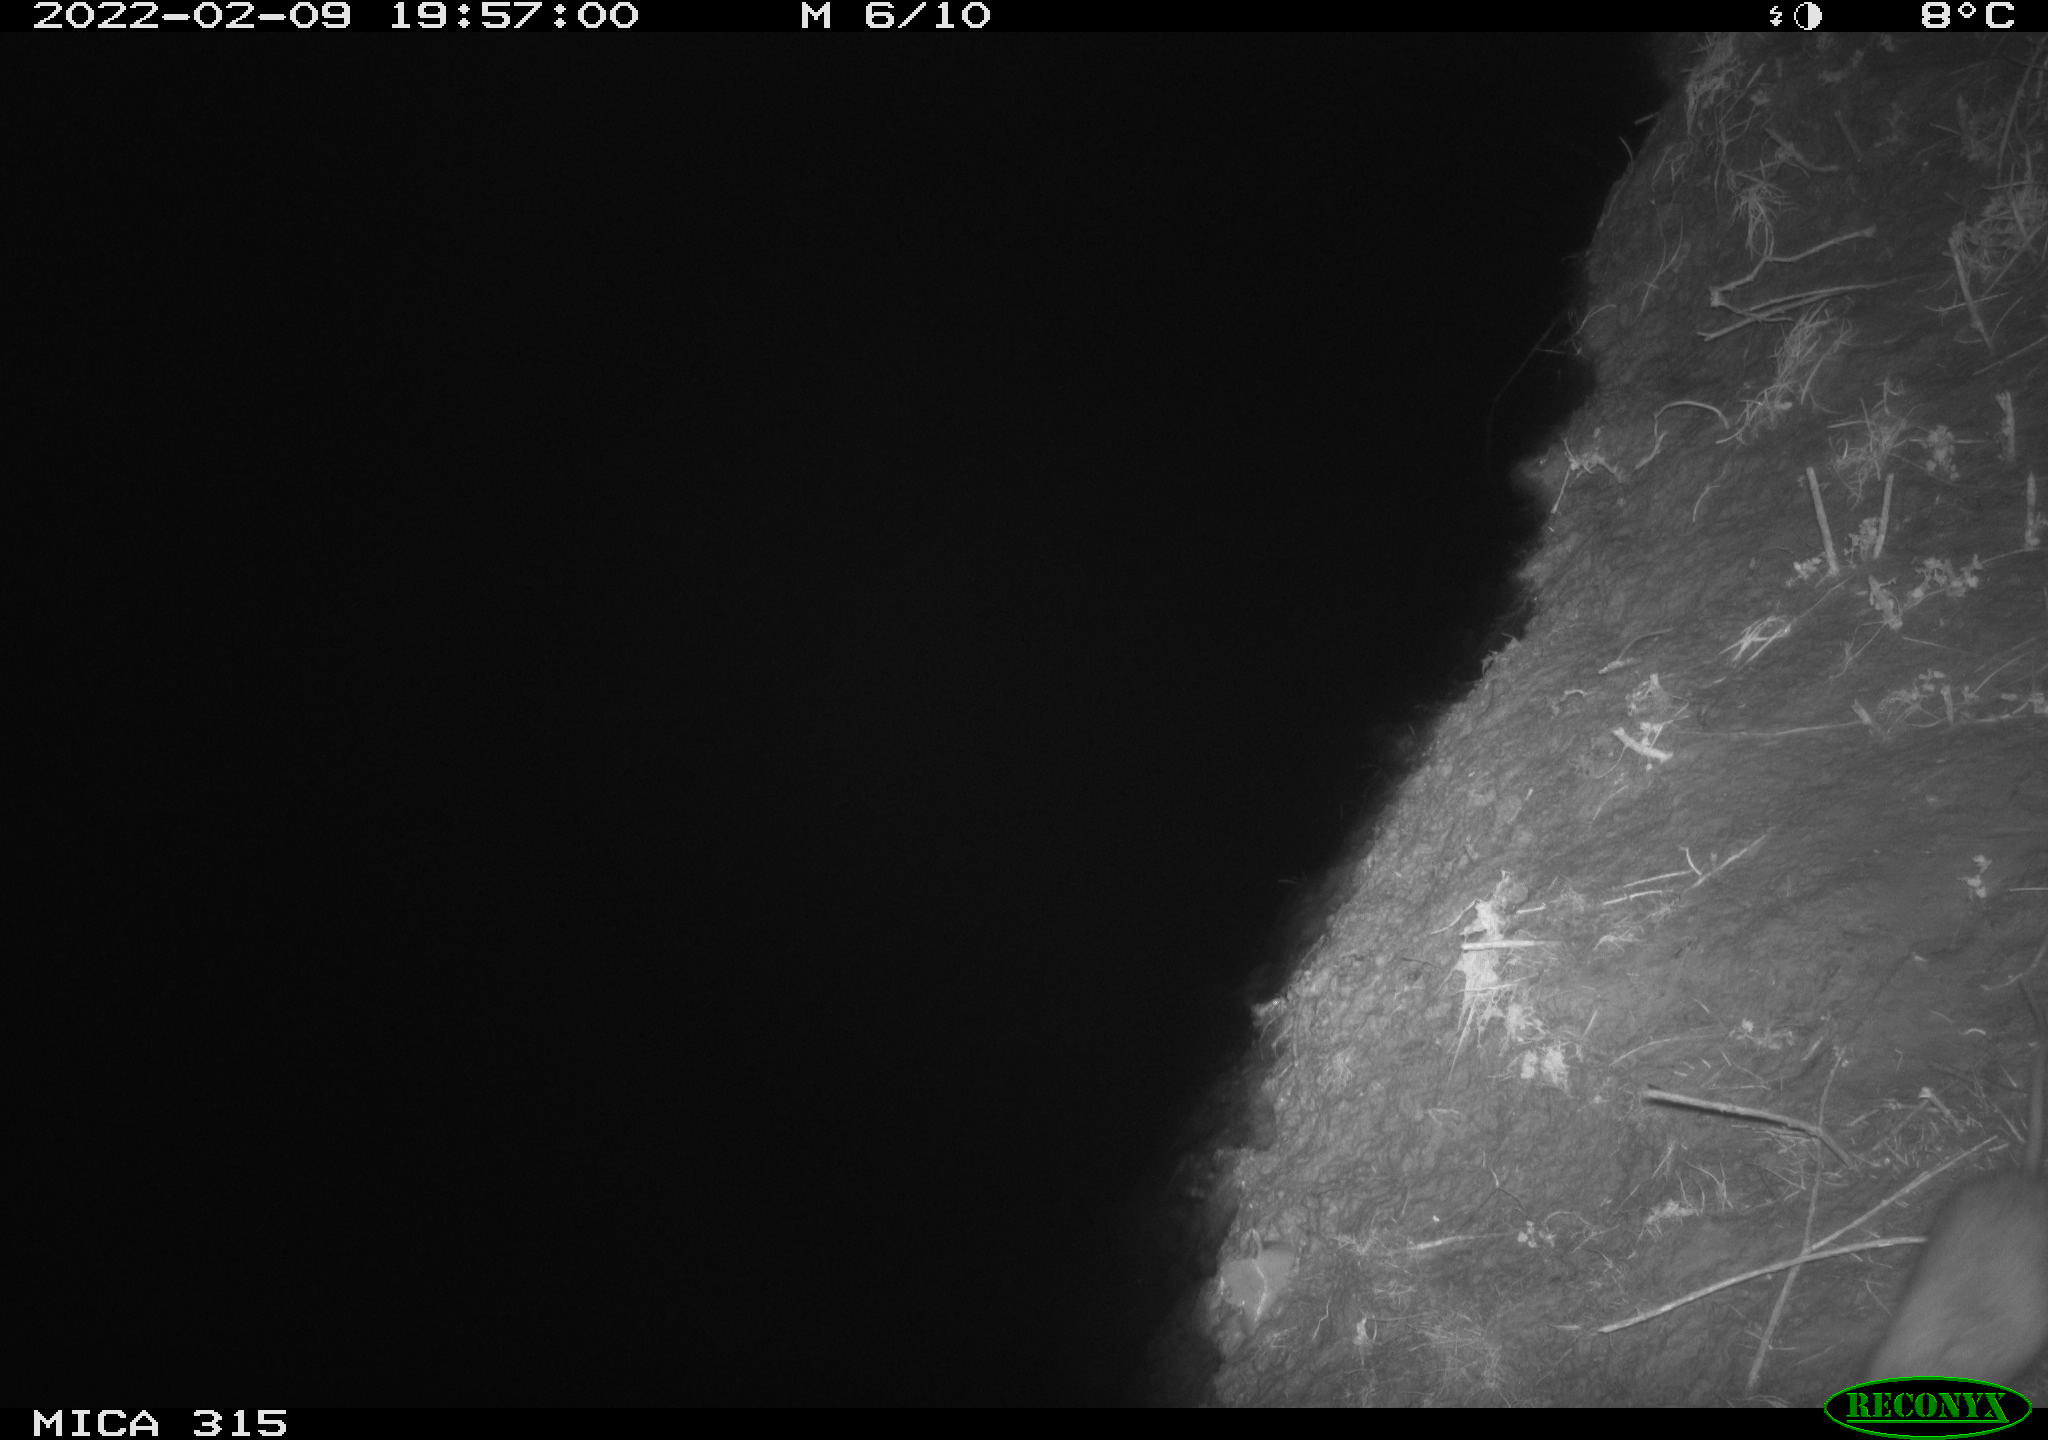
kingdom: Animalia
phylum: Chordata
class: Mammalia
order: Rodentia
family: Muridae
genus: Rattus
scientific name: Rattus norvegicus
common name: Brown rat
